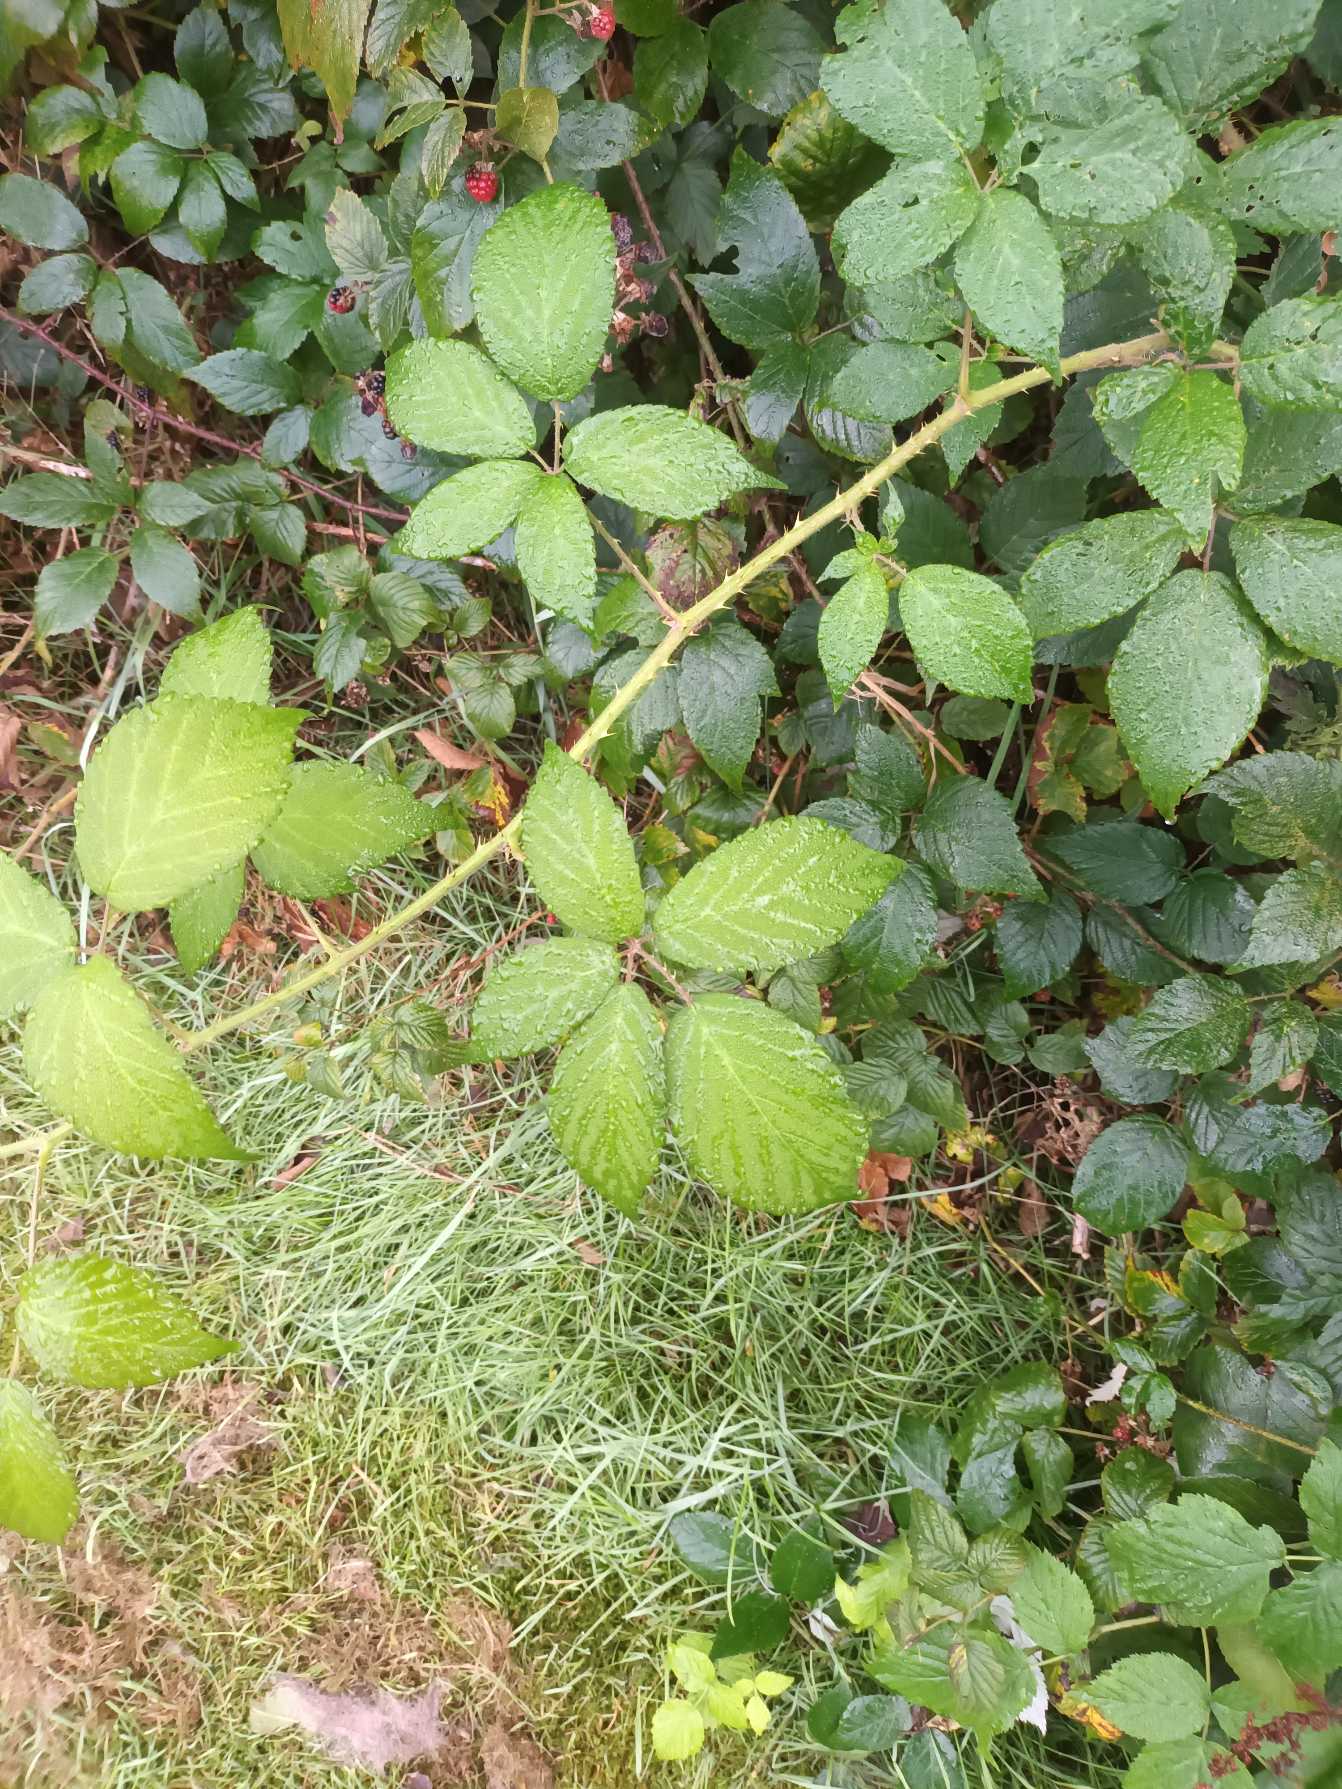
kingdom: Plantae
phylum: Tracheophyta
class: Magnoliopsida
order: Rosales
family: Rosaceae
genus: Rubus
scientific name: Rubus radula
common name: Rasperu brombær
